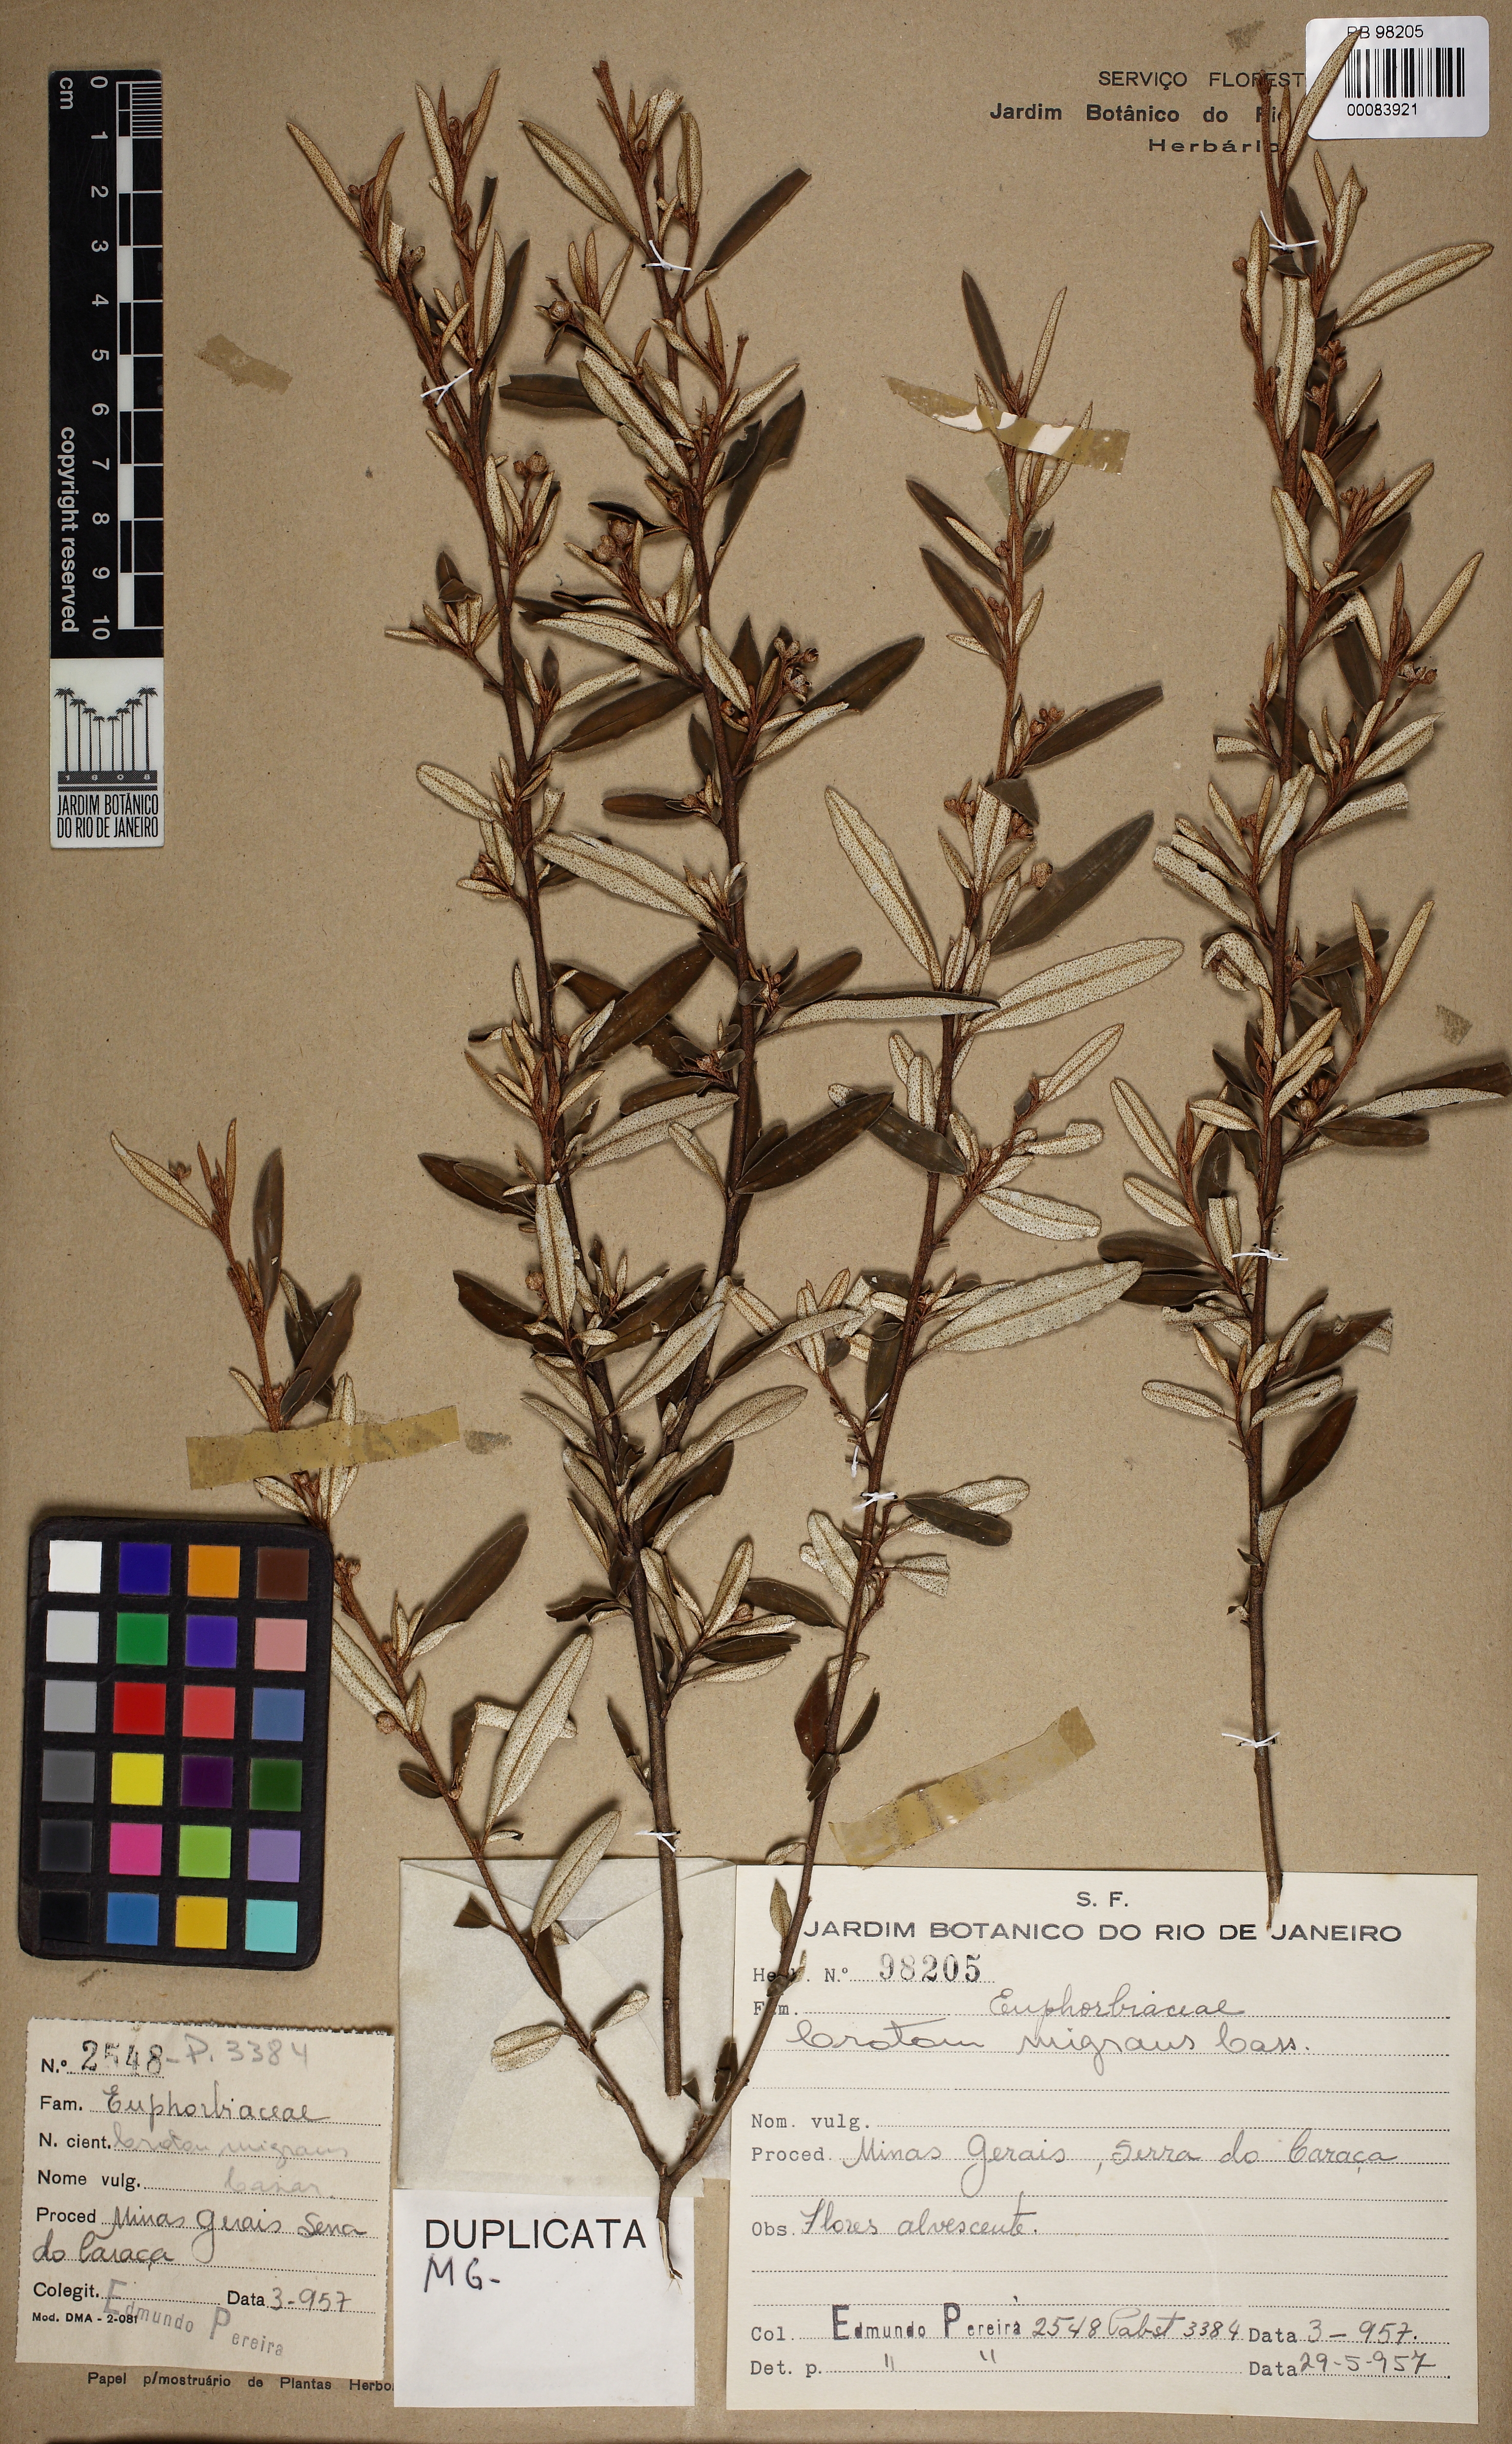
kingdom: Plantae
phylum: Tracheophyta
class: Magnoliopsida
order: Malpighiales
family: Euphorbiaceae
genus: Croton
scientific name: Croton splendidus
